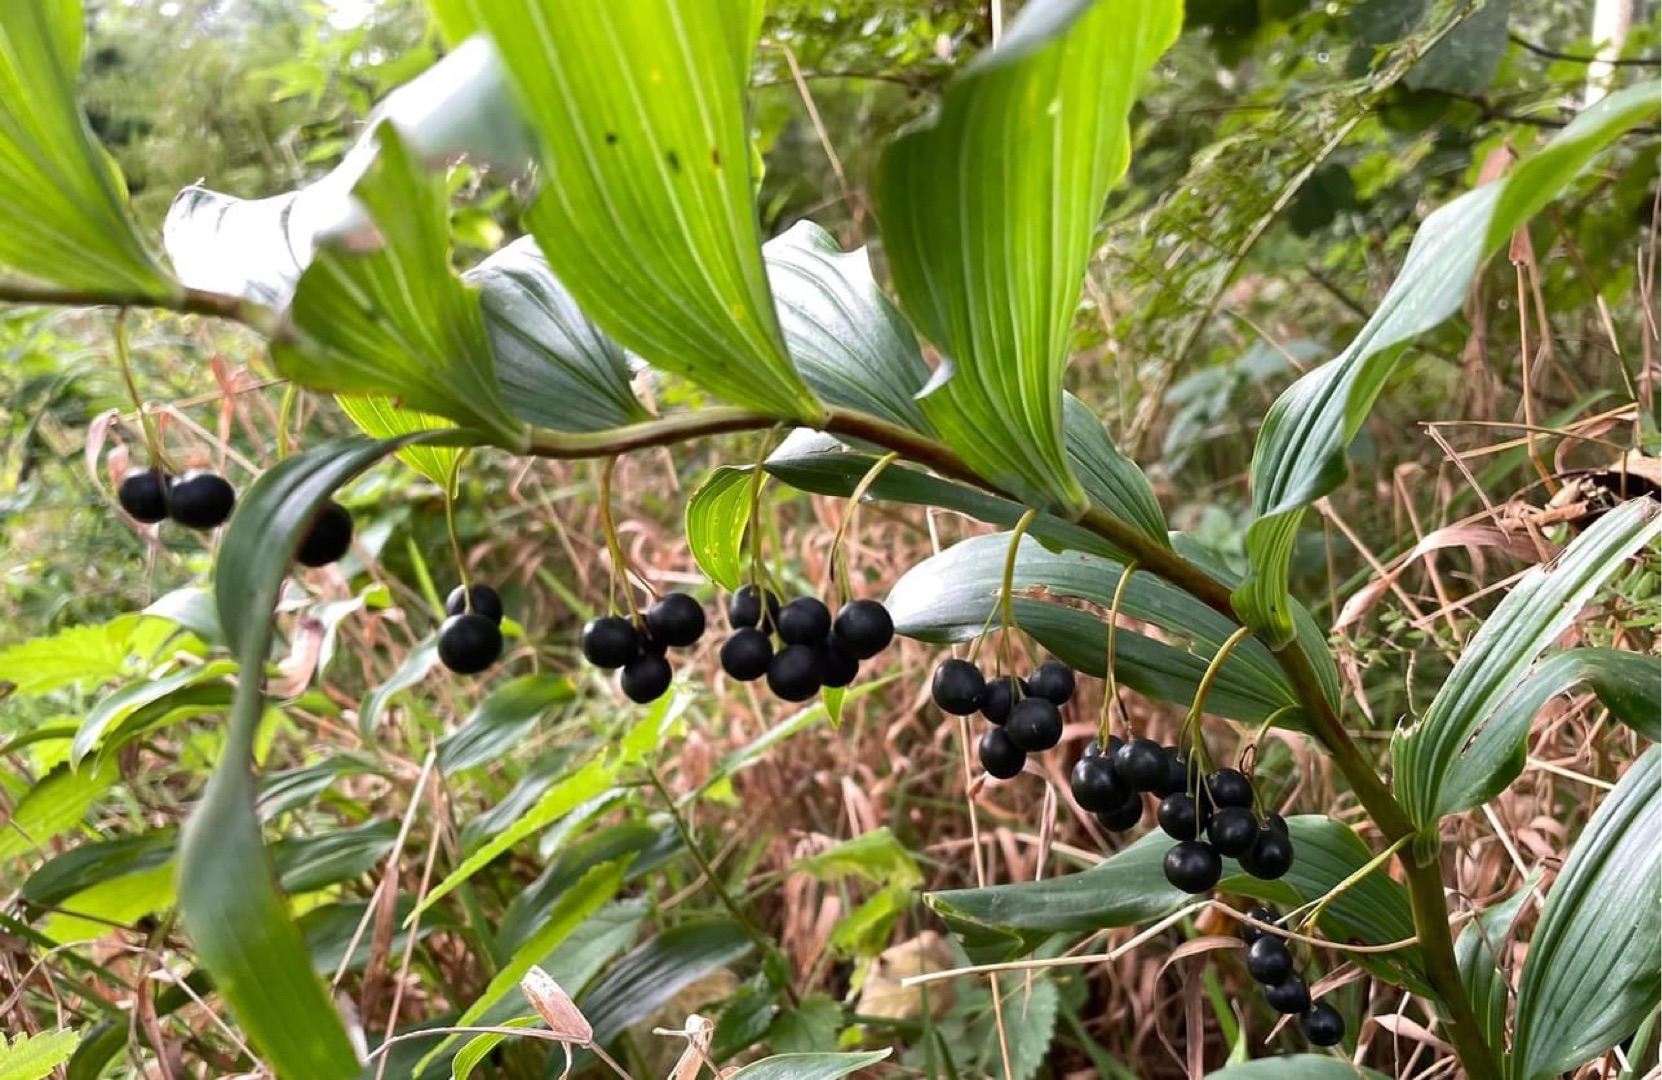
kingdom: Plantae
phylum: Tracheophyta
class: Liliopsida
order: Asparagales
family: Asparagaceae
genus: Polygonatum
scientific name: Polygonatum multiflorum
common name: Stor konval
